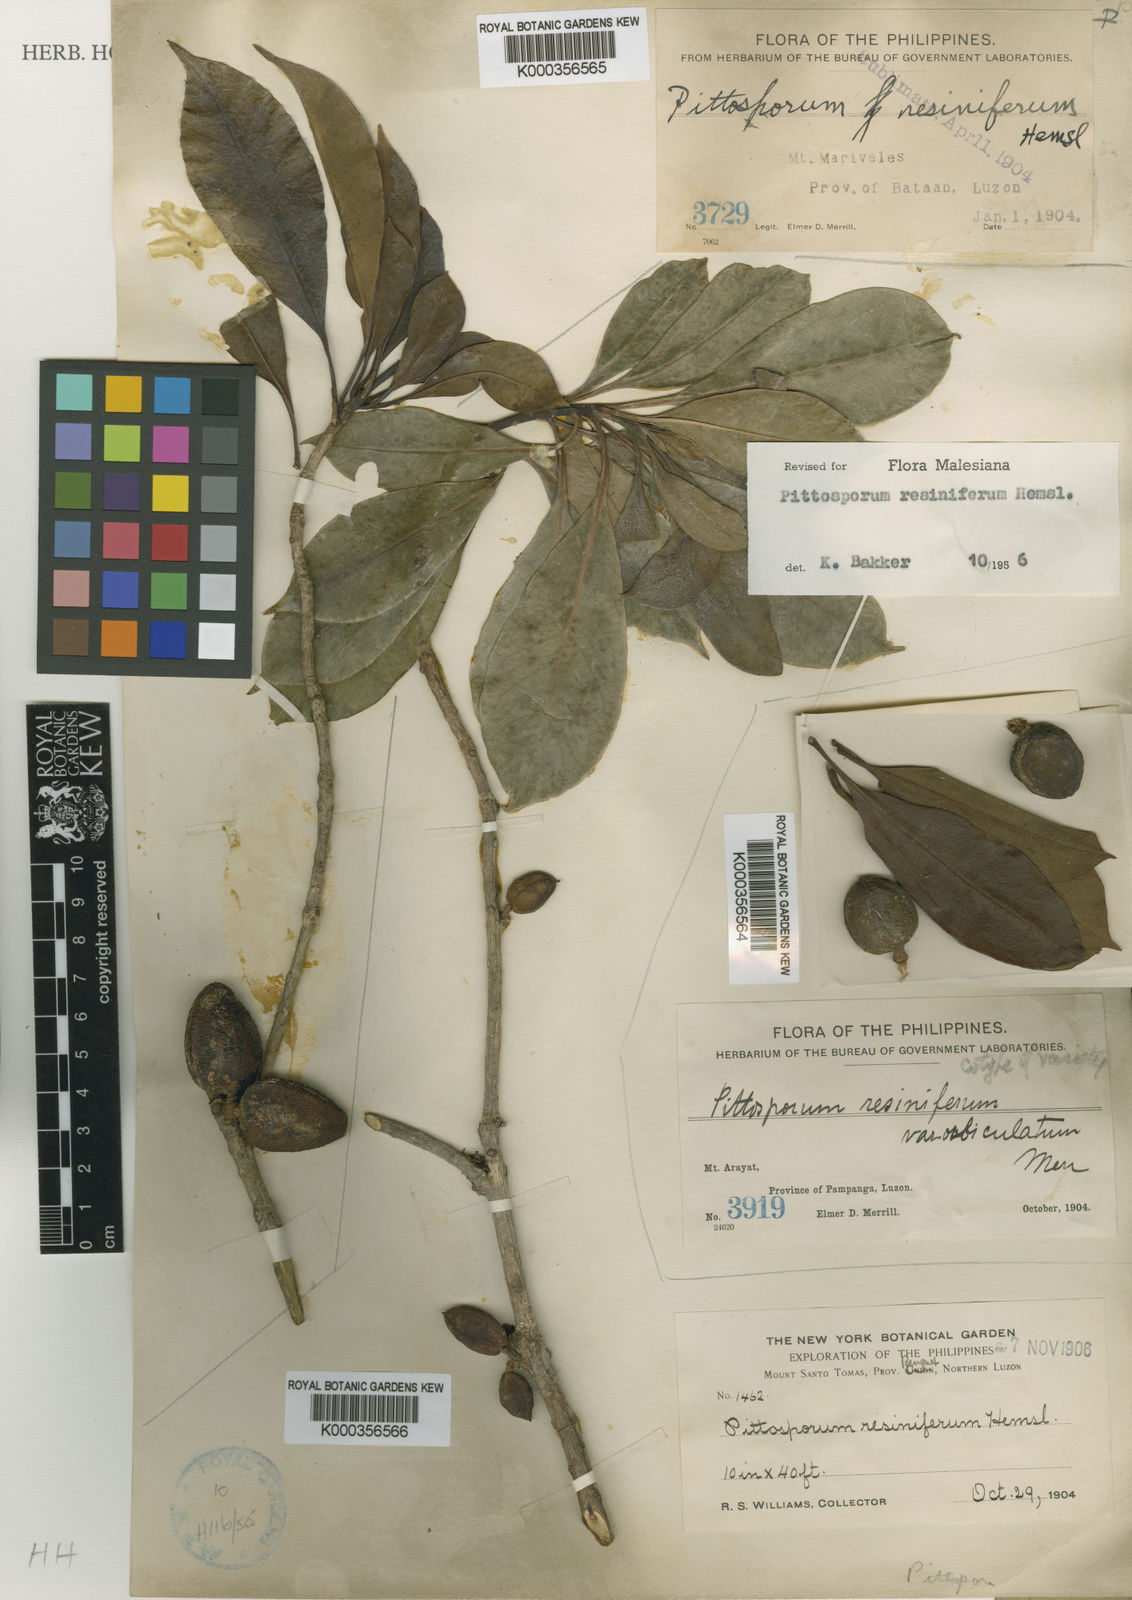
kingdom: Plantae
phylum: Tracheophyta
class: Magnoliopsida
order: Apiales
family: Pittosporaceae
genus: Pittosporum
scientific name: Pittosporum resiniferum
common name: Petroleum-nut
